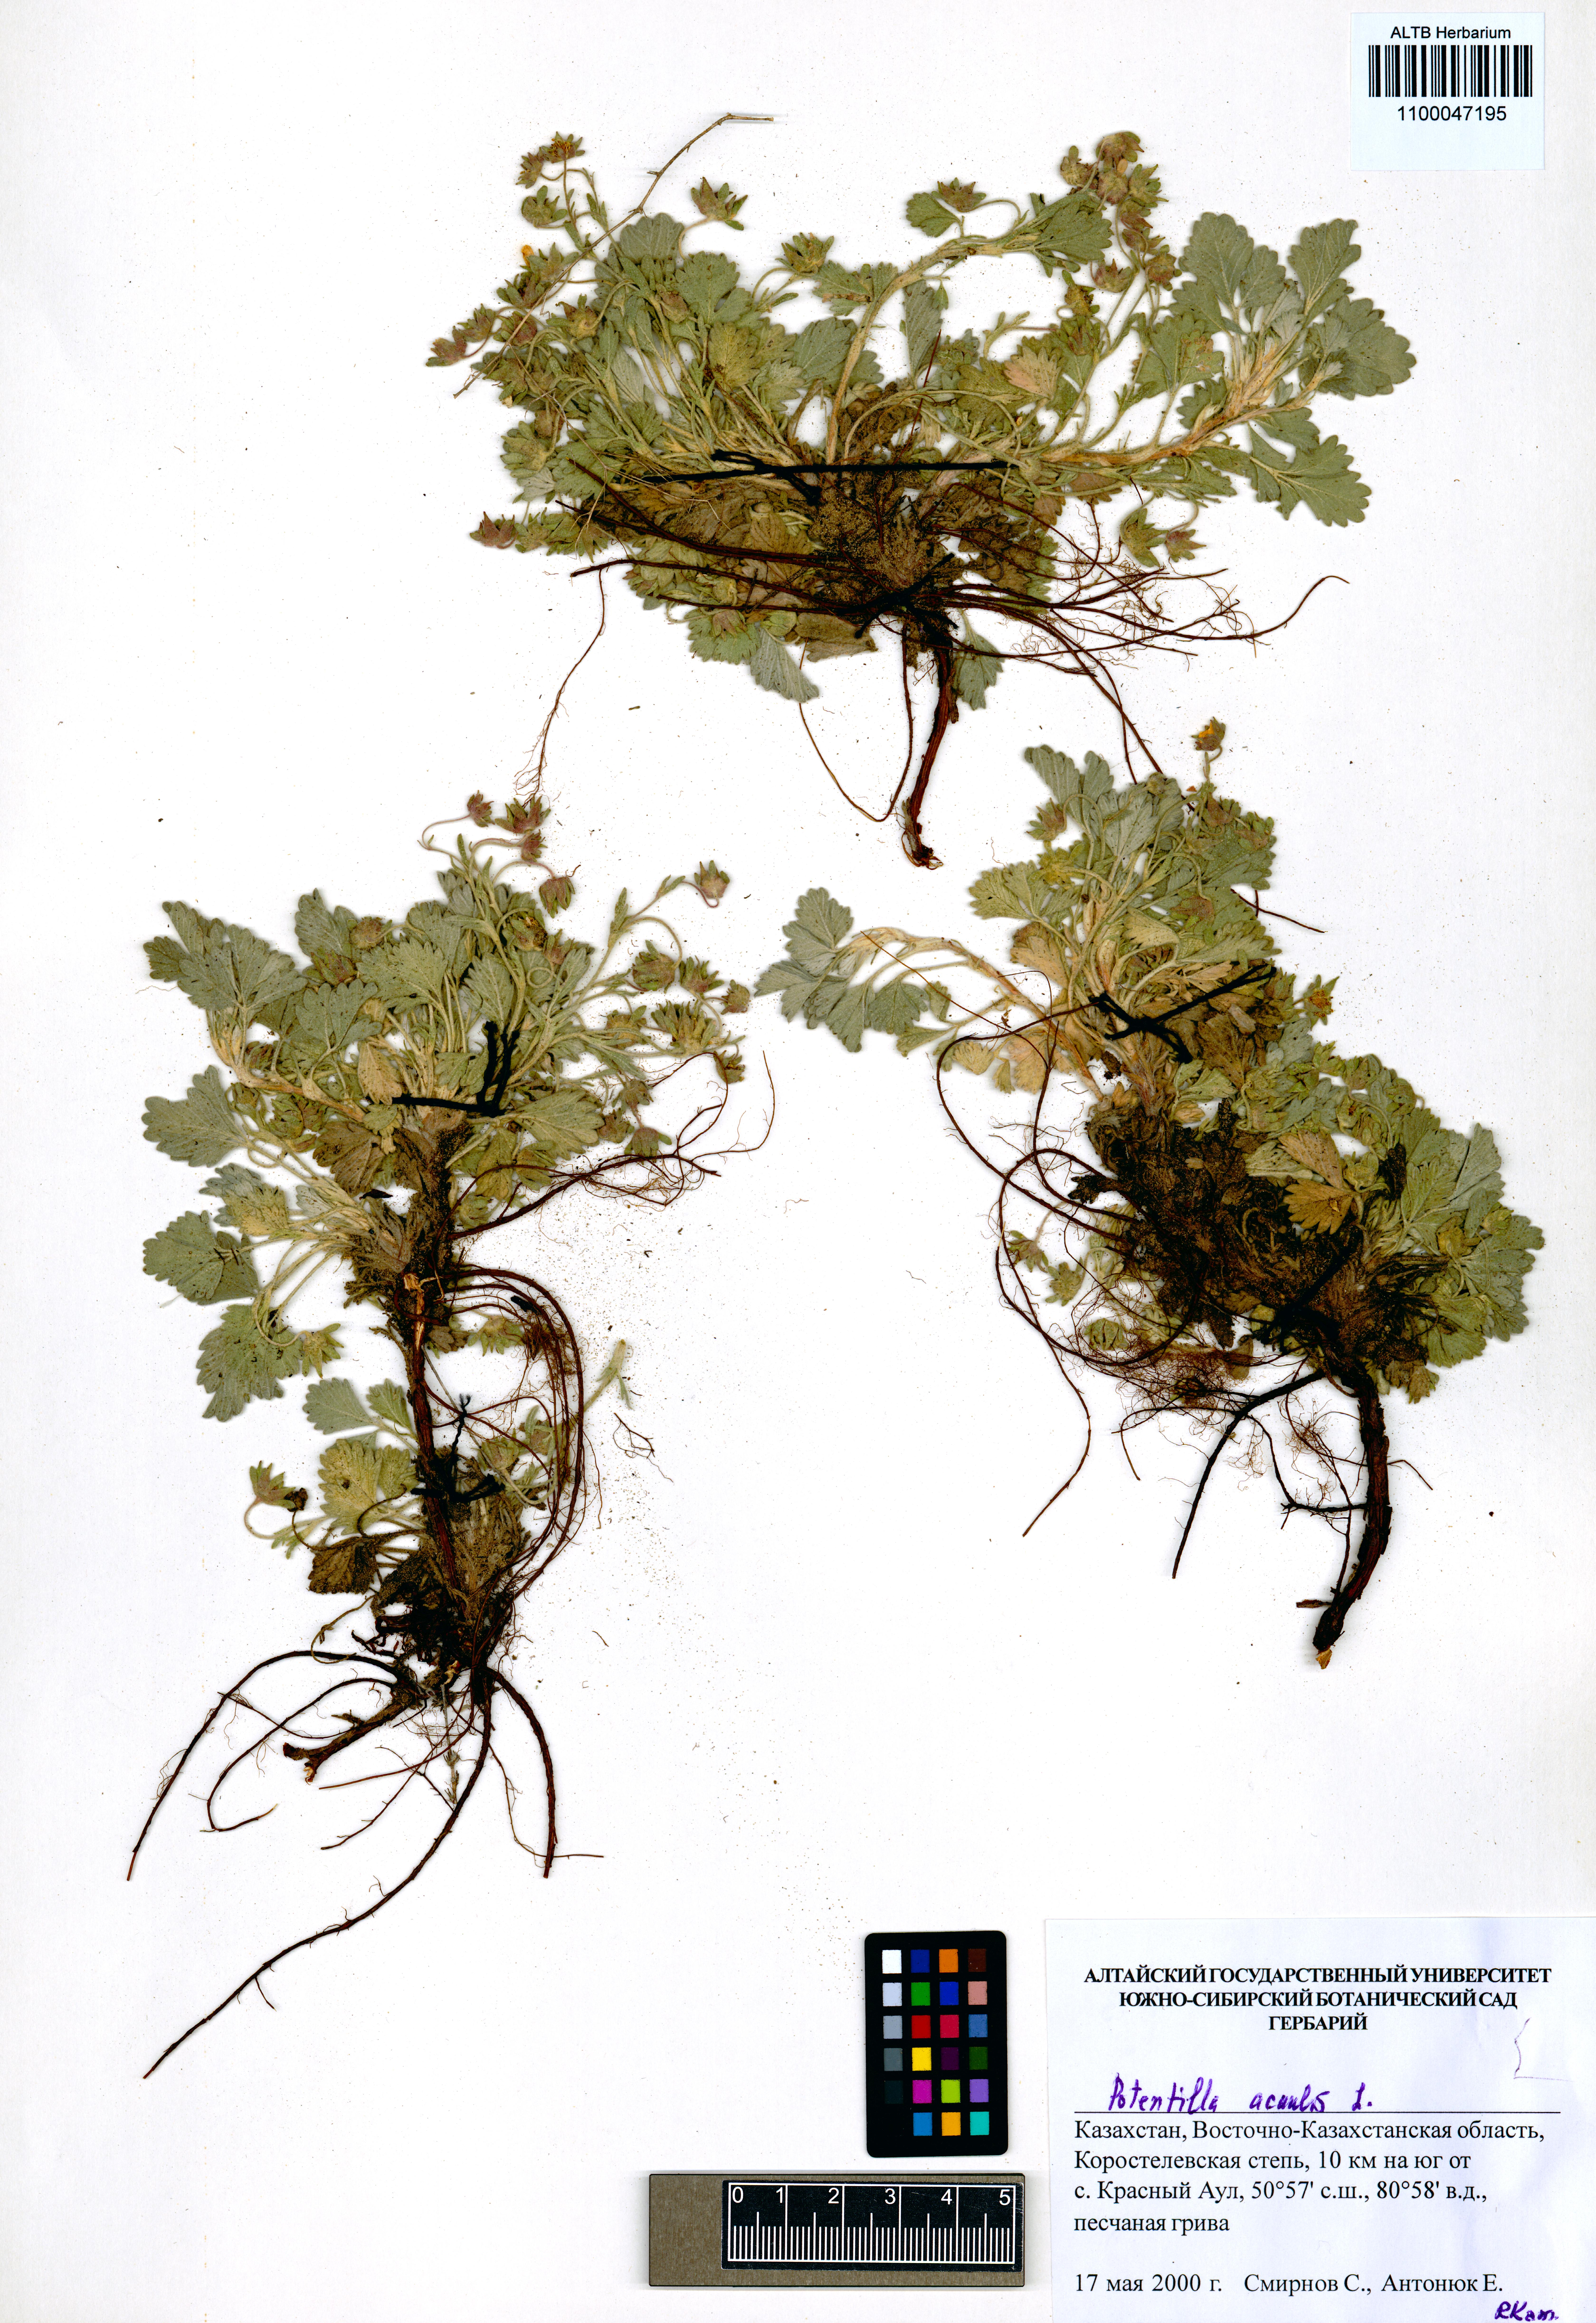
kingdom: Plantae
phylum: Tracheophyta
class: Magnoliopsida
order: Rosales
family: Rosaceae
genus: Potentilla
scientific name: Potentilla acaulis
